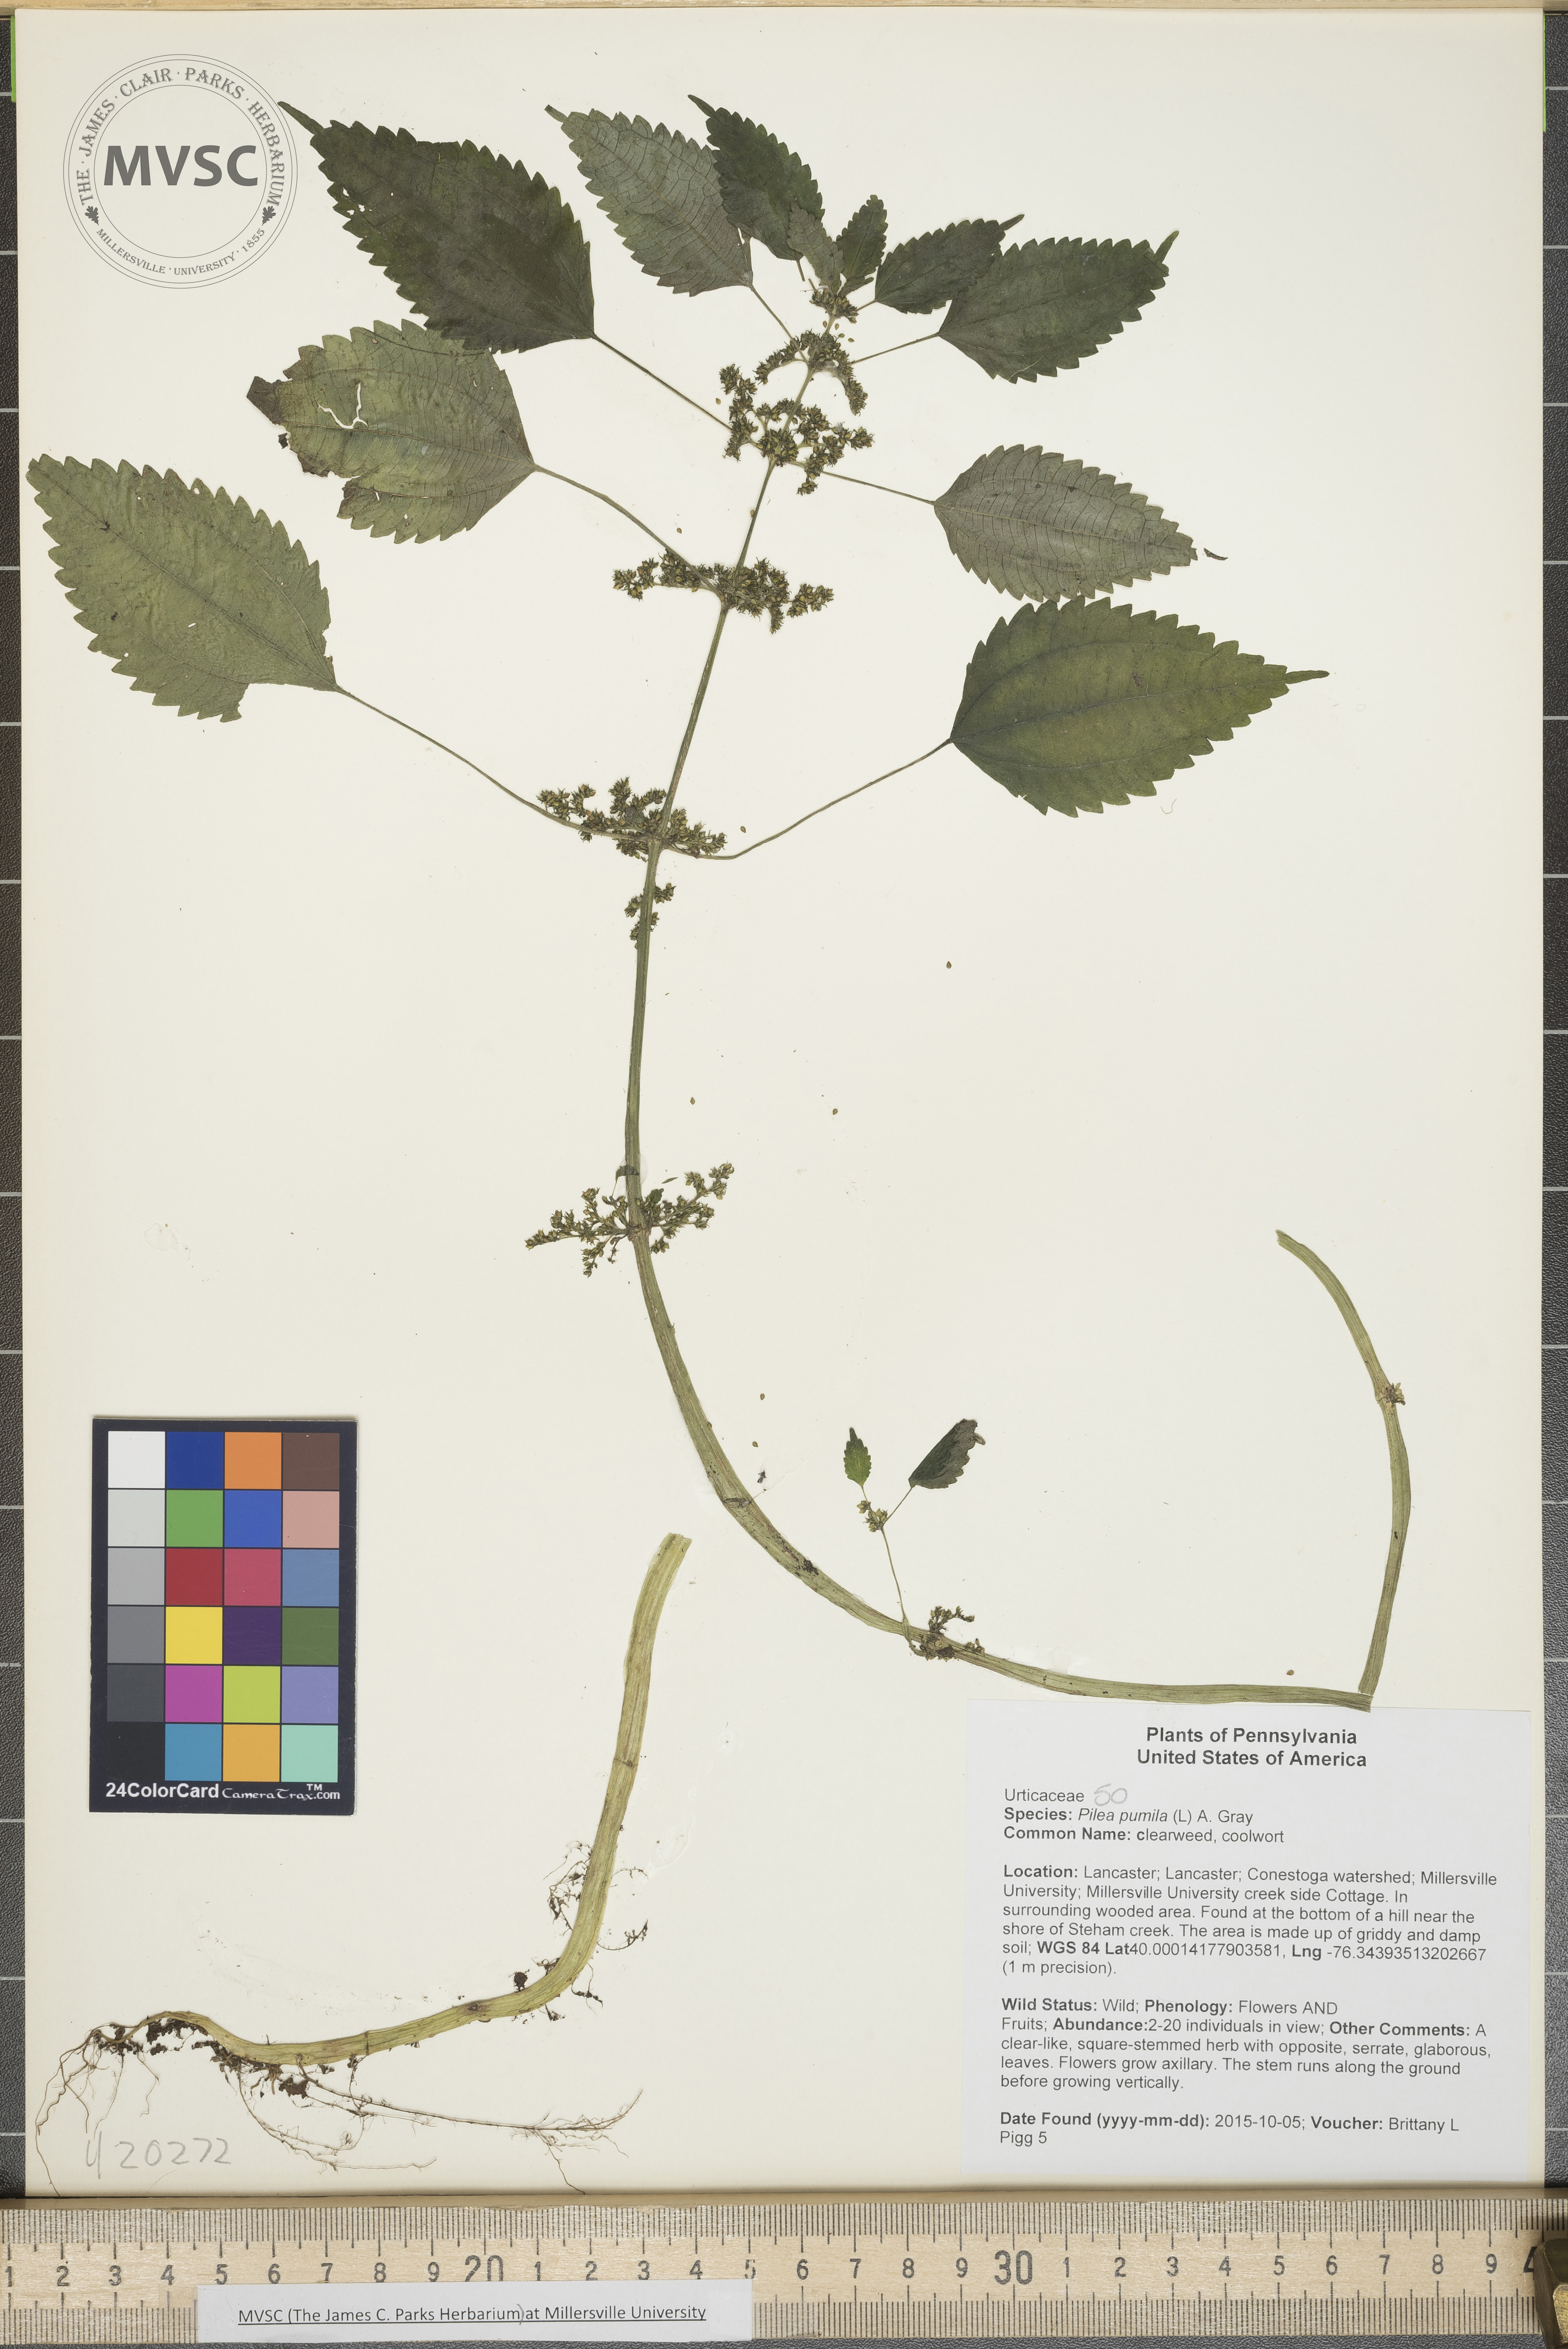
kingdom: Plantae
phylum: Tracheophyta
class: Magnoliopsida
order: Rosales
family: Urticaceae
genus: Pilea
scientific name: Pilea pumila
